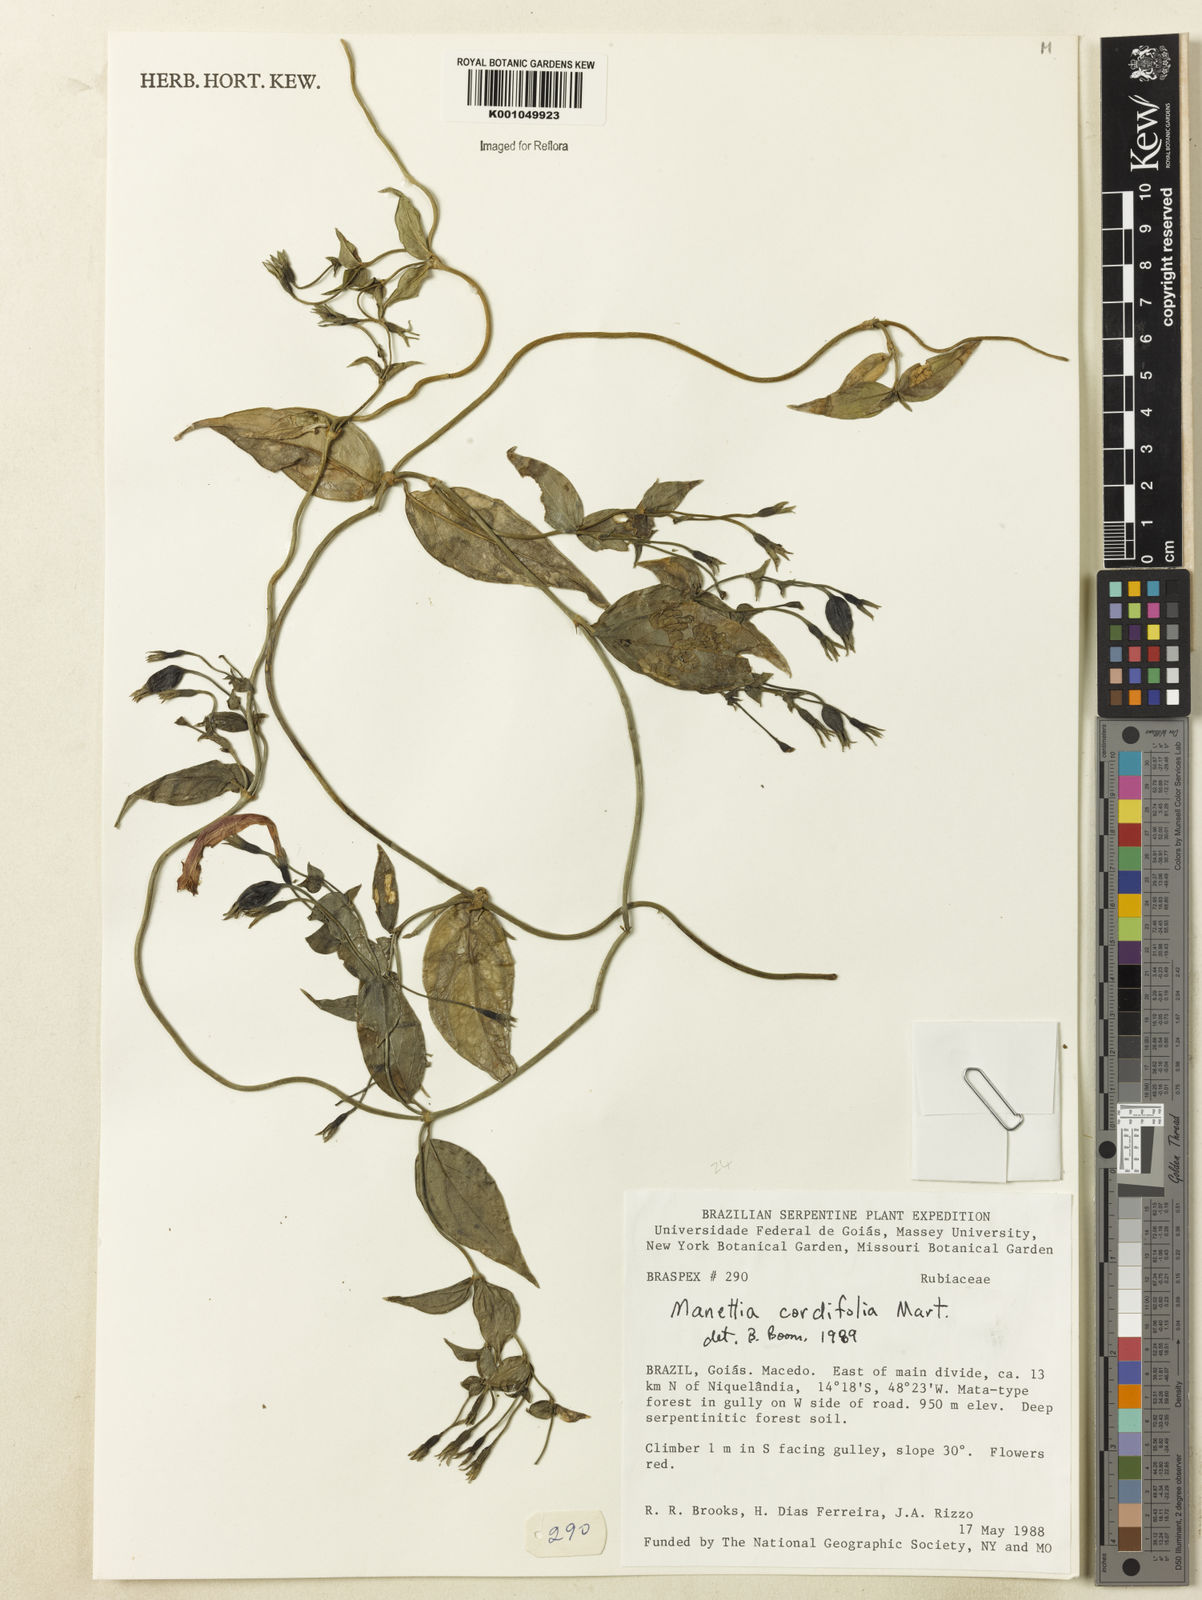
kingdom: Plantae
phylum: Tracheophyta
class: Magnoliopsida
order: Gentianales
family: Rubiaceae
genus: Manettia
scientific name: Manettia cordifolia
